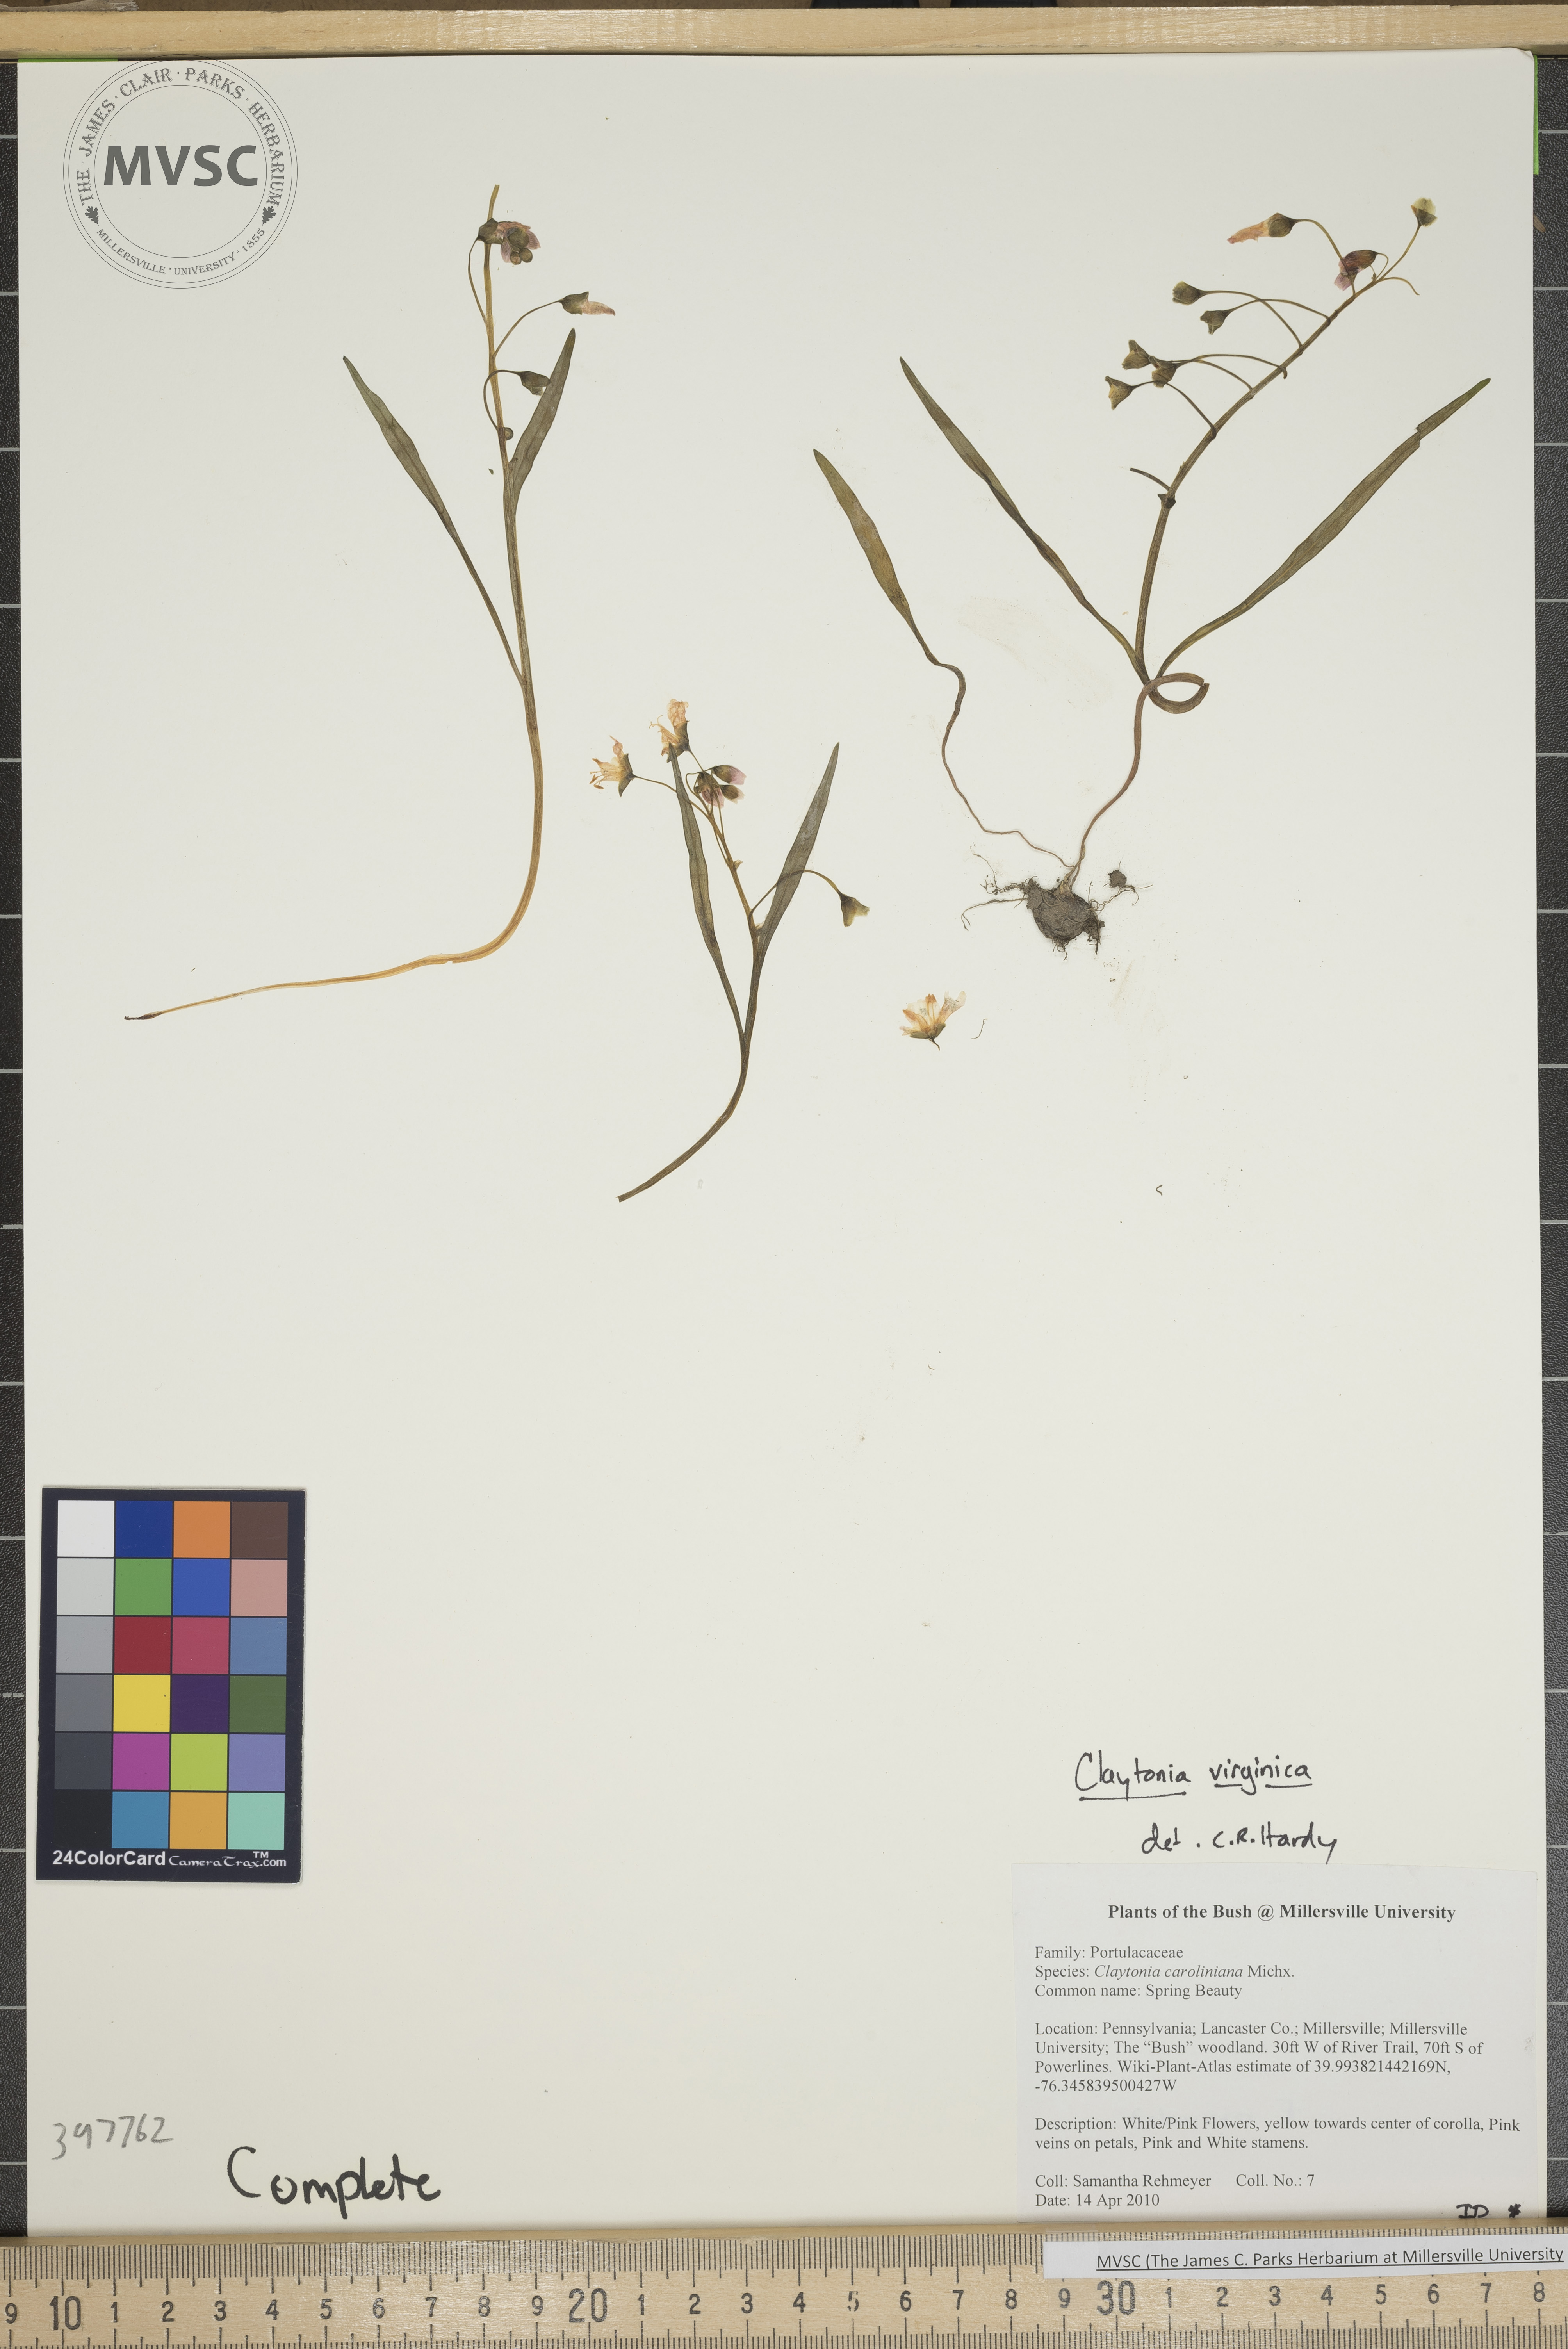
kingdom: Plantae
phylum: Tracheophyta
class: Magnoliopsida
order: Caryophyllales
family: Montiaceae
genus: Claytonia
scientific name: Claytonia virginica
